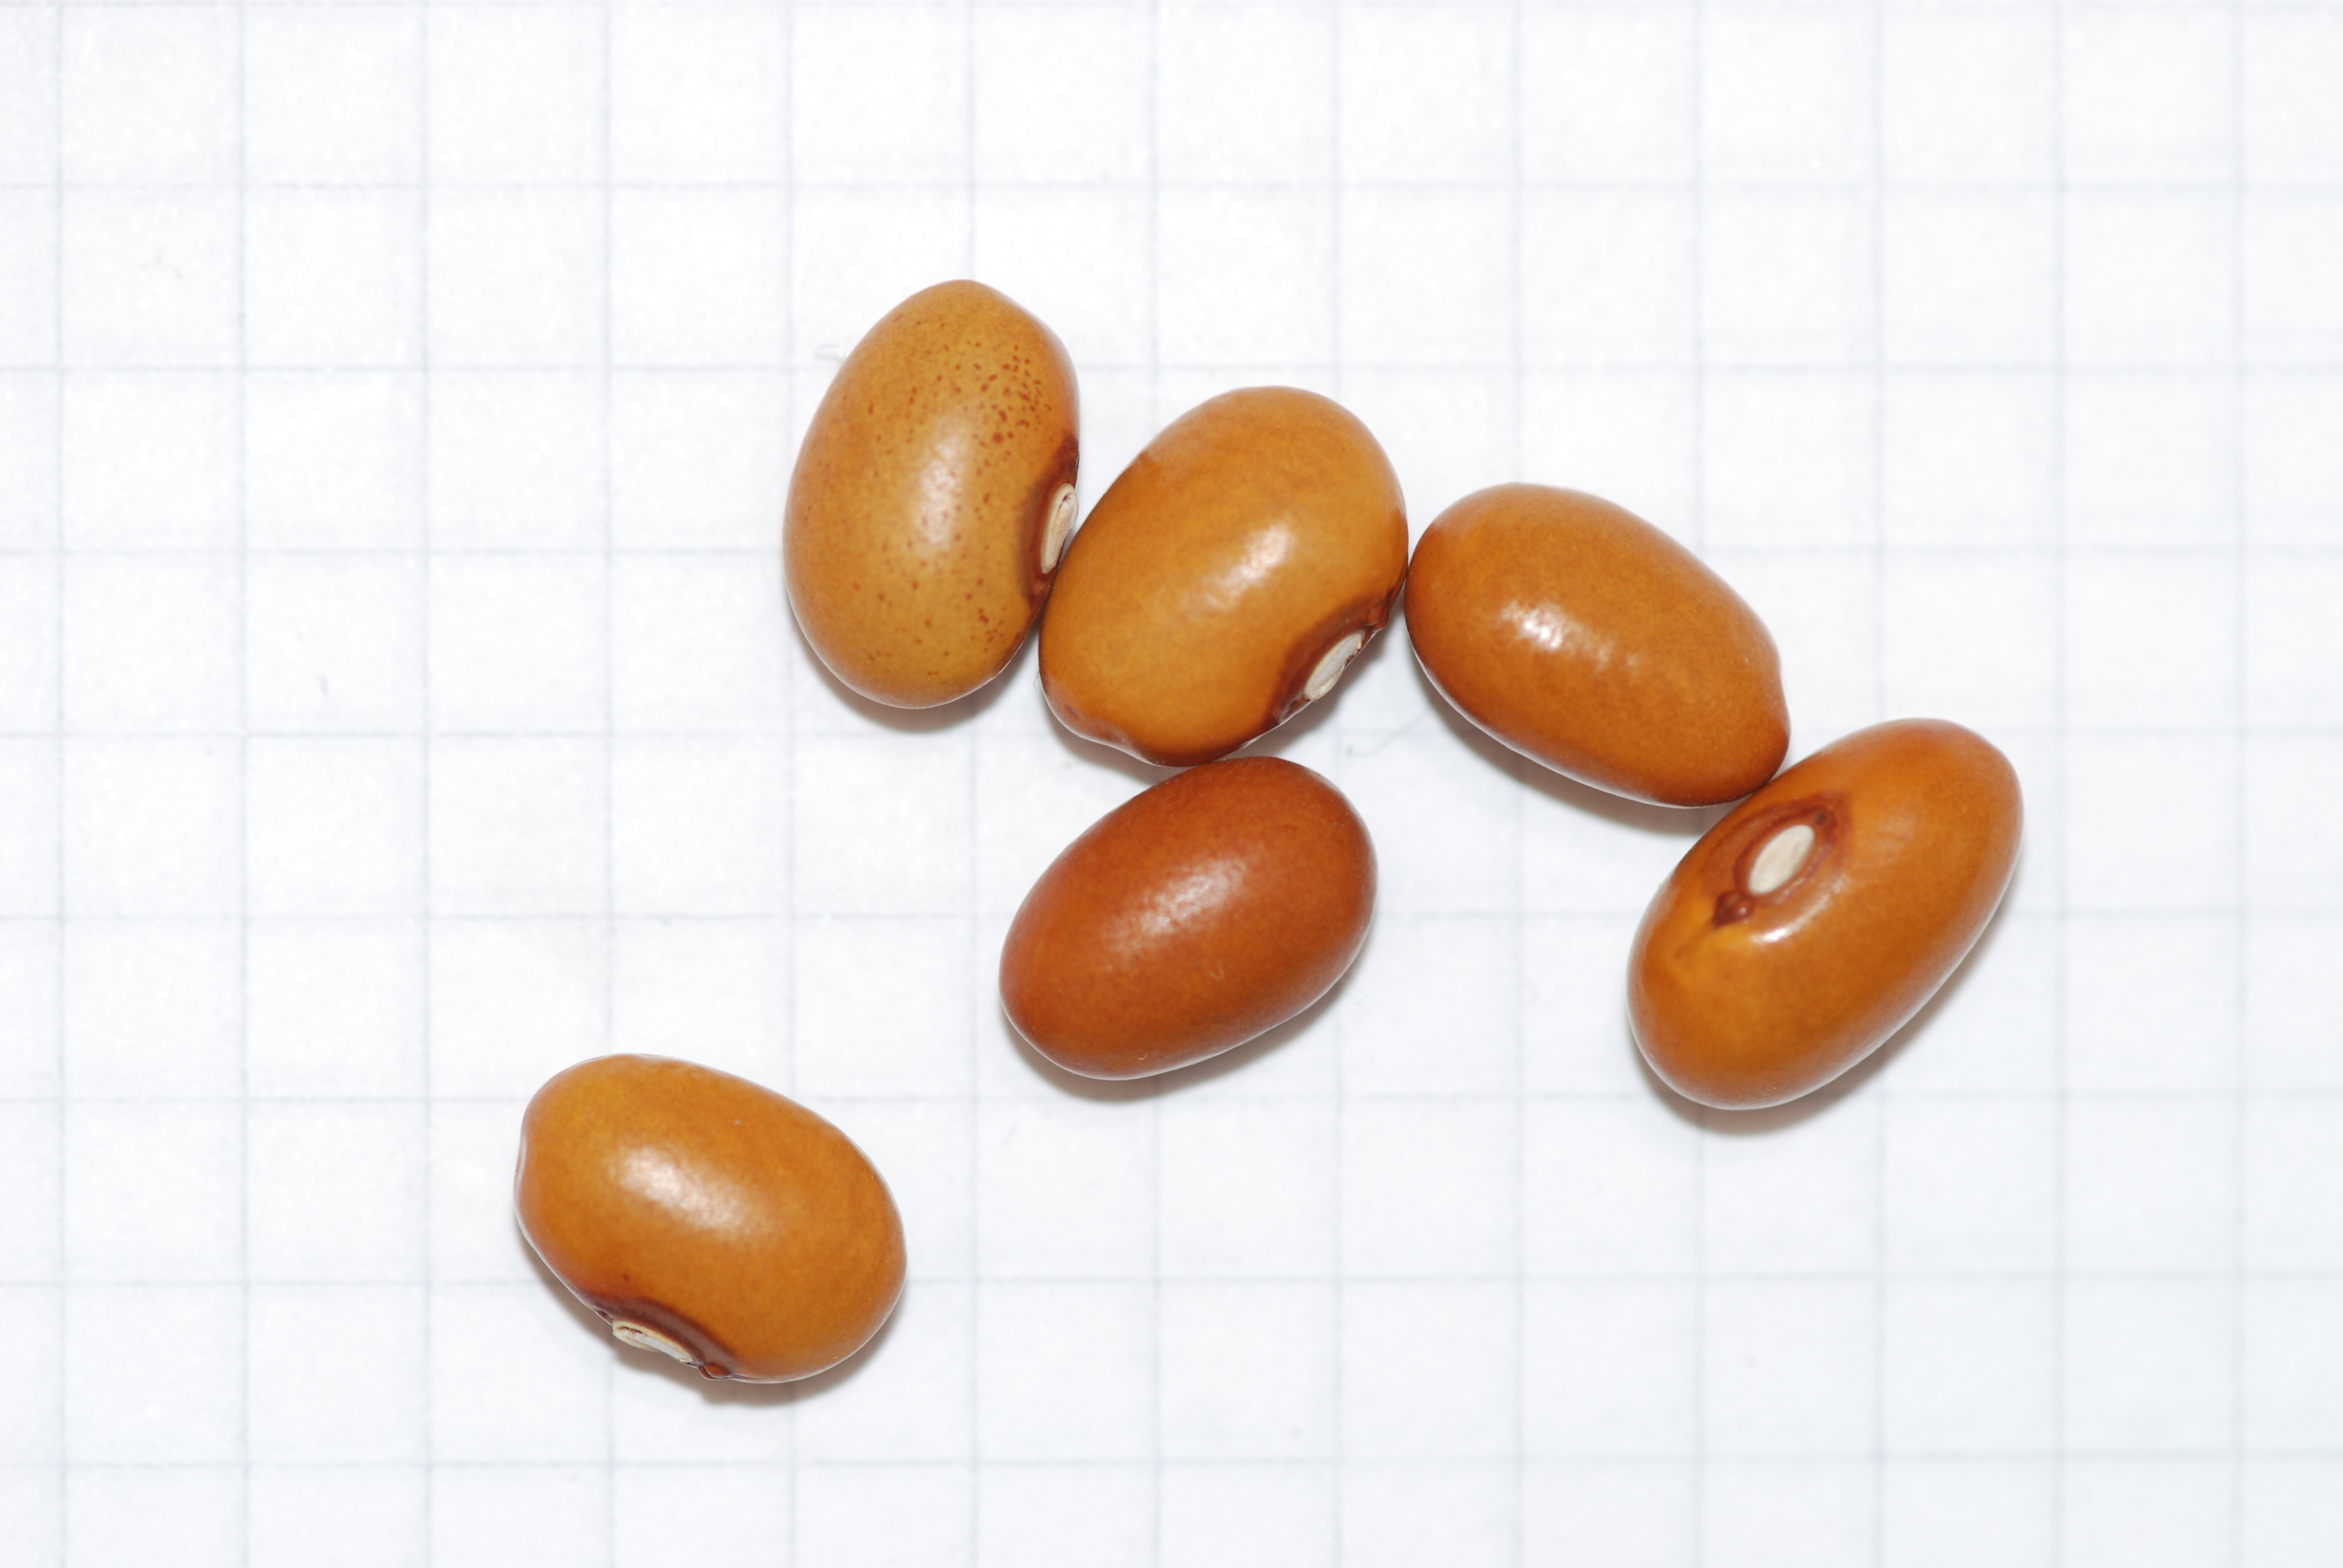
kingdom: Plantae
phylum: Tracheophyta
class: Magnoliopsida
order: Fabales
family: Fabaceae
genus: Phaseolus
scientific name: Phaseolus vulgaris
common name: Bean
